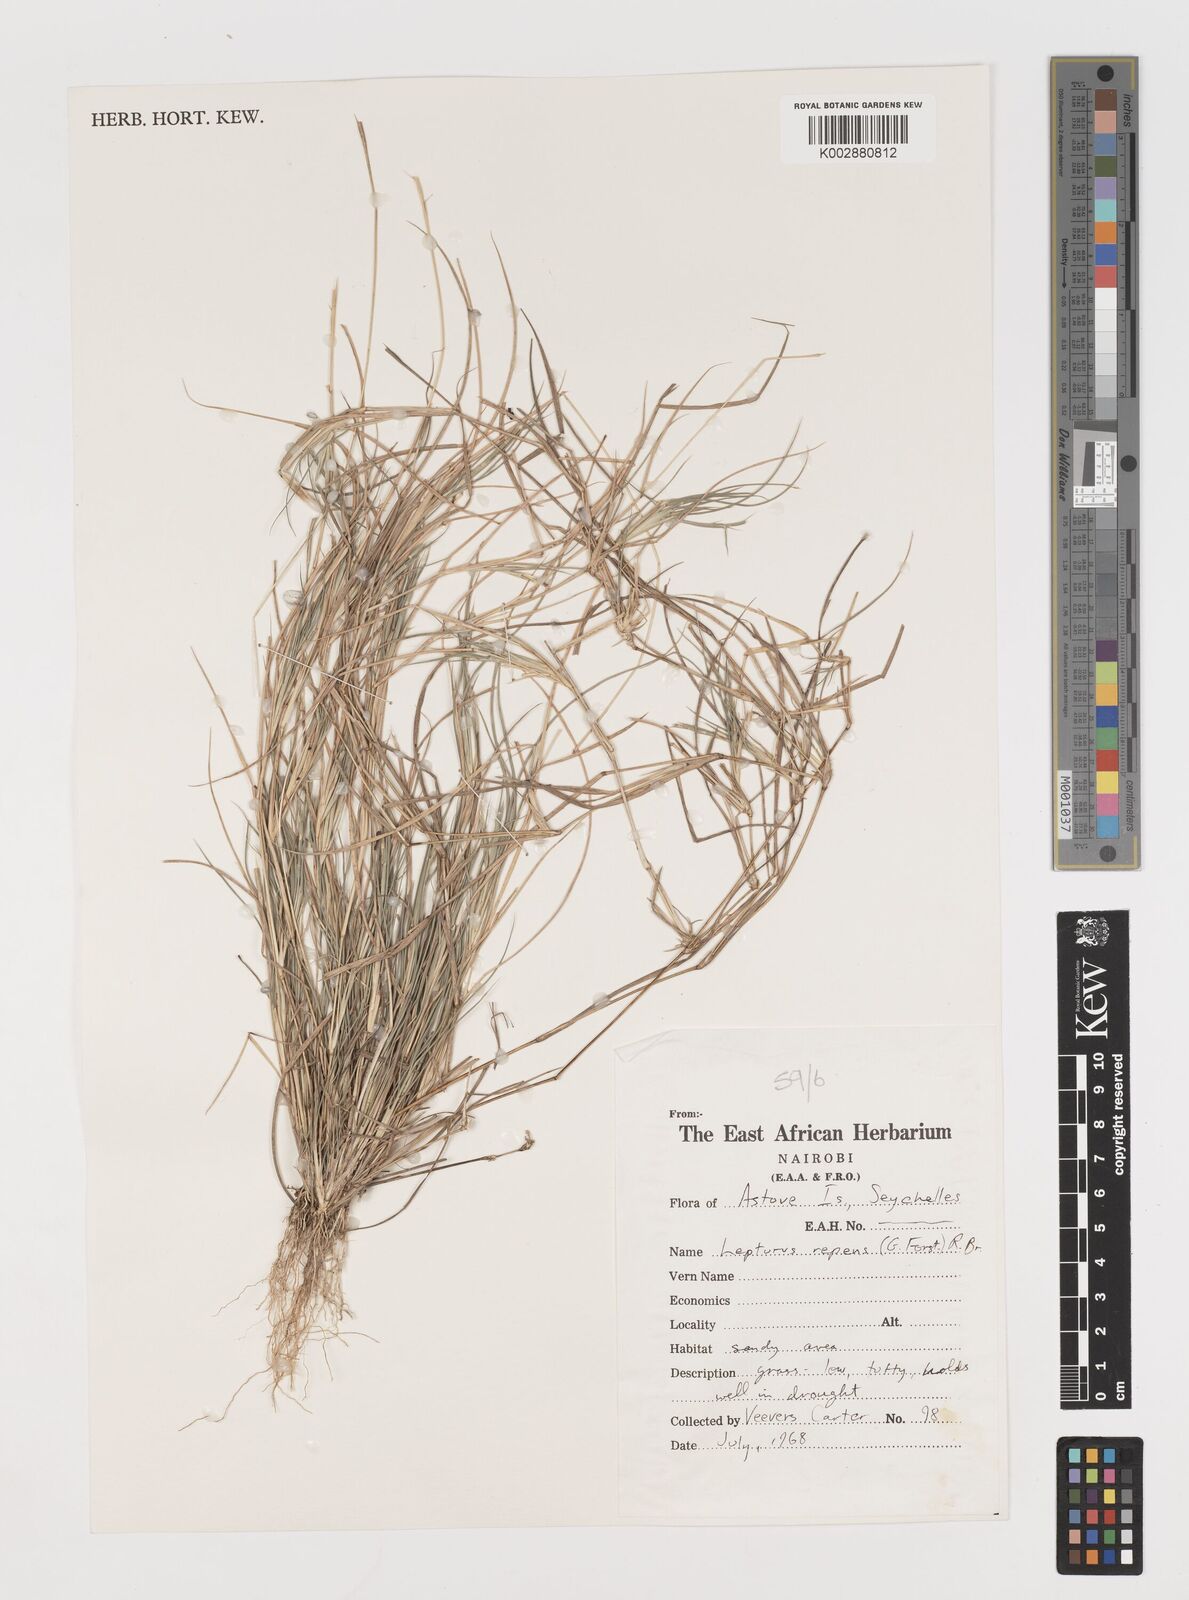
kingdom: Plantae
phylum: Tracheophyta
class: Liliopsida
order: Poales
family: Poaceae
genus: Lepturus
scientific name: Lepturus repens
